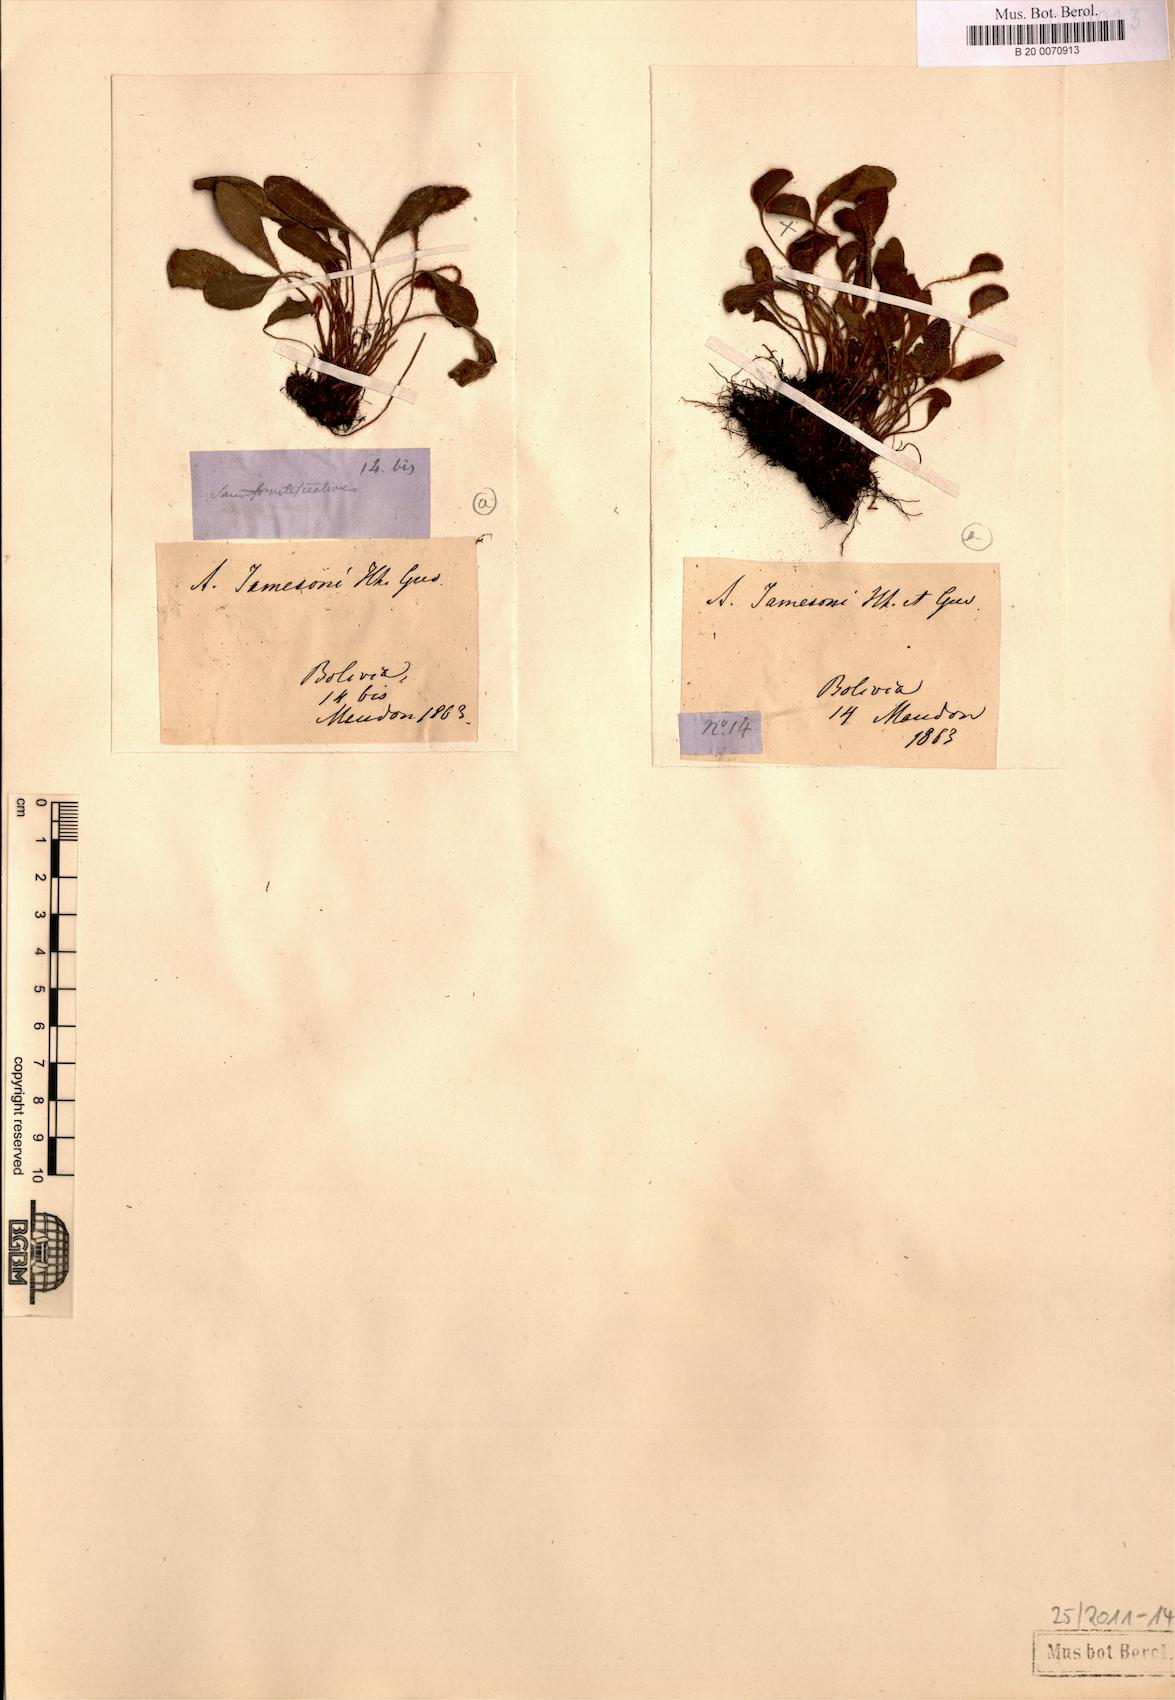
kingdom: Plantae
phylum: Tracheophyta
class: Polypodiopsida
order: Polypodiales
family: Dryopteridaceae
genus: Elaphoglossum
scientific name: Elaphoglossum piloselloides
